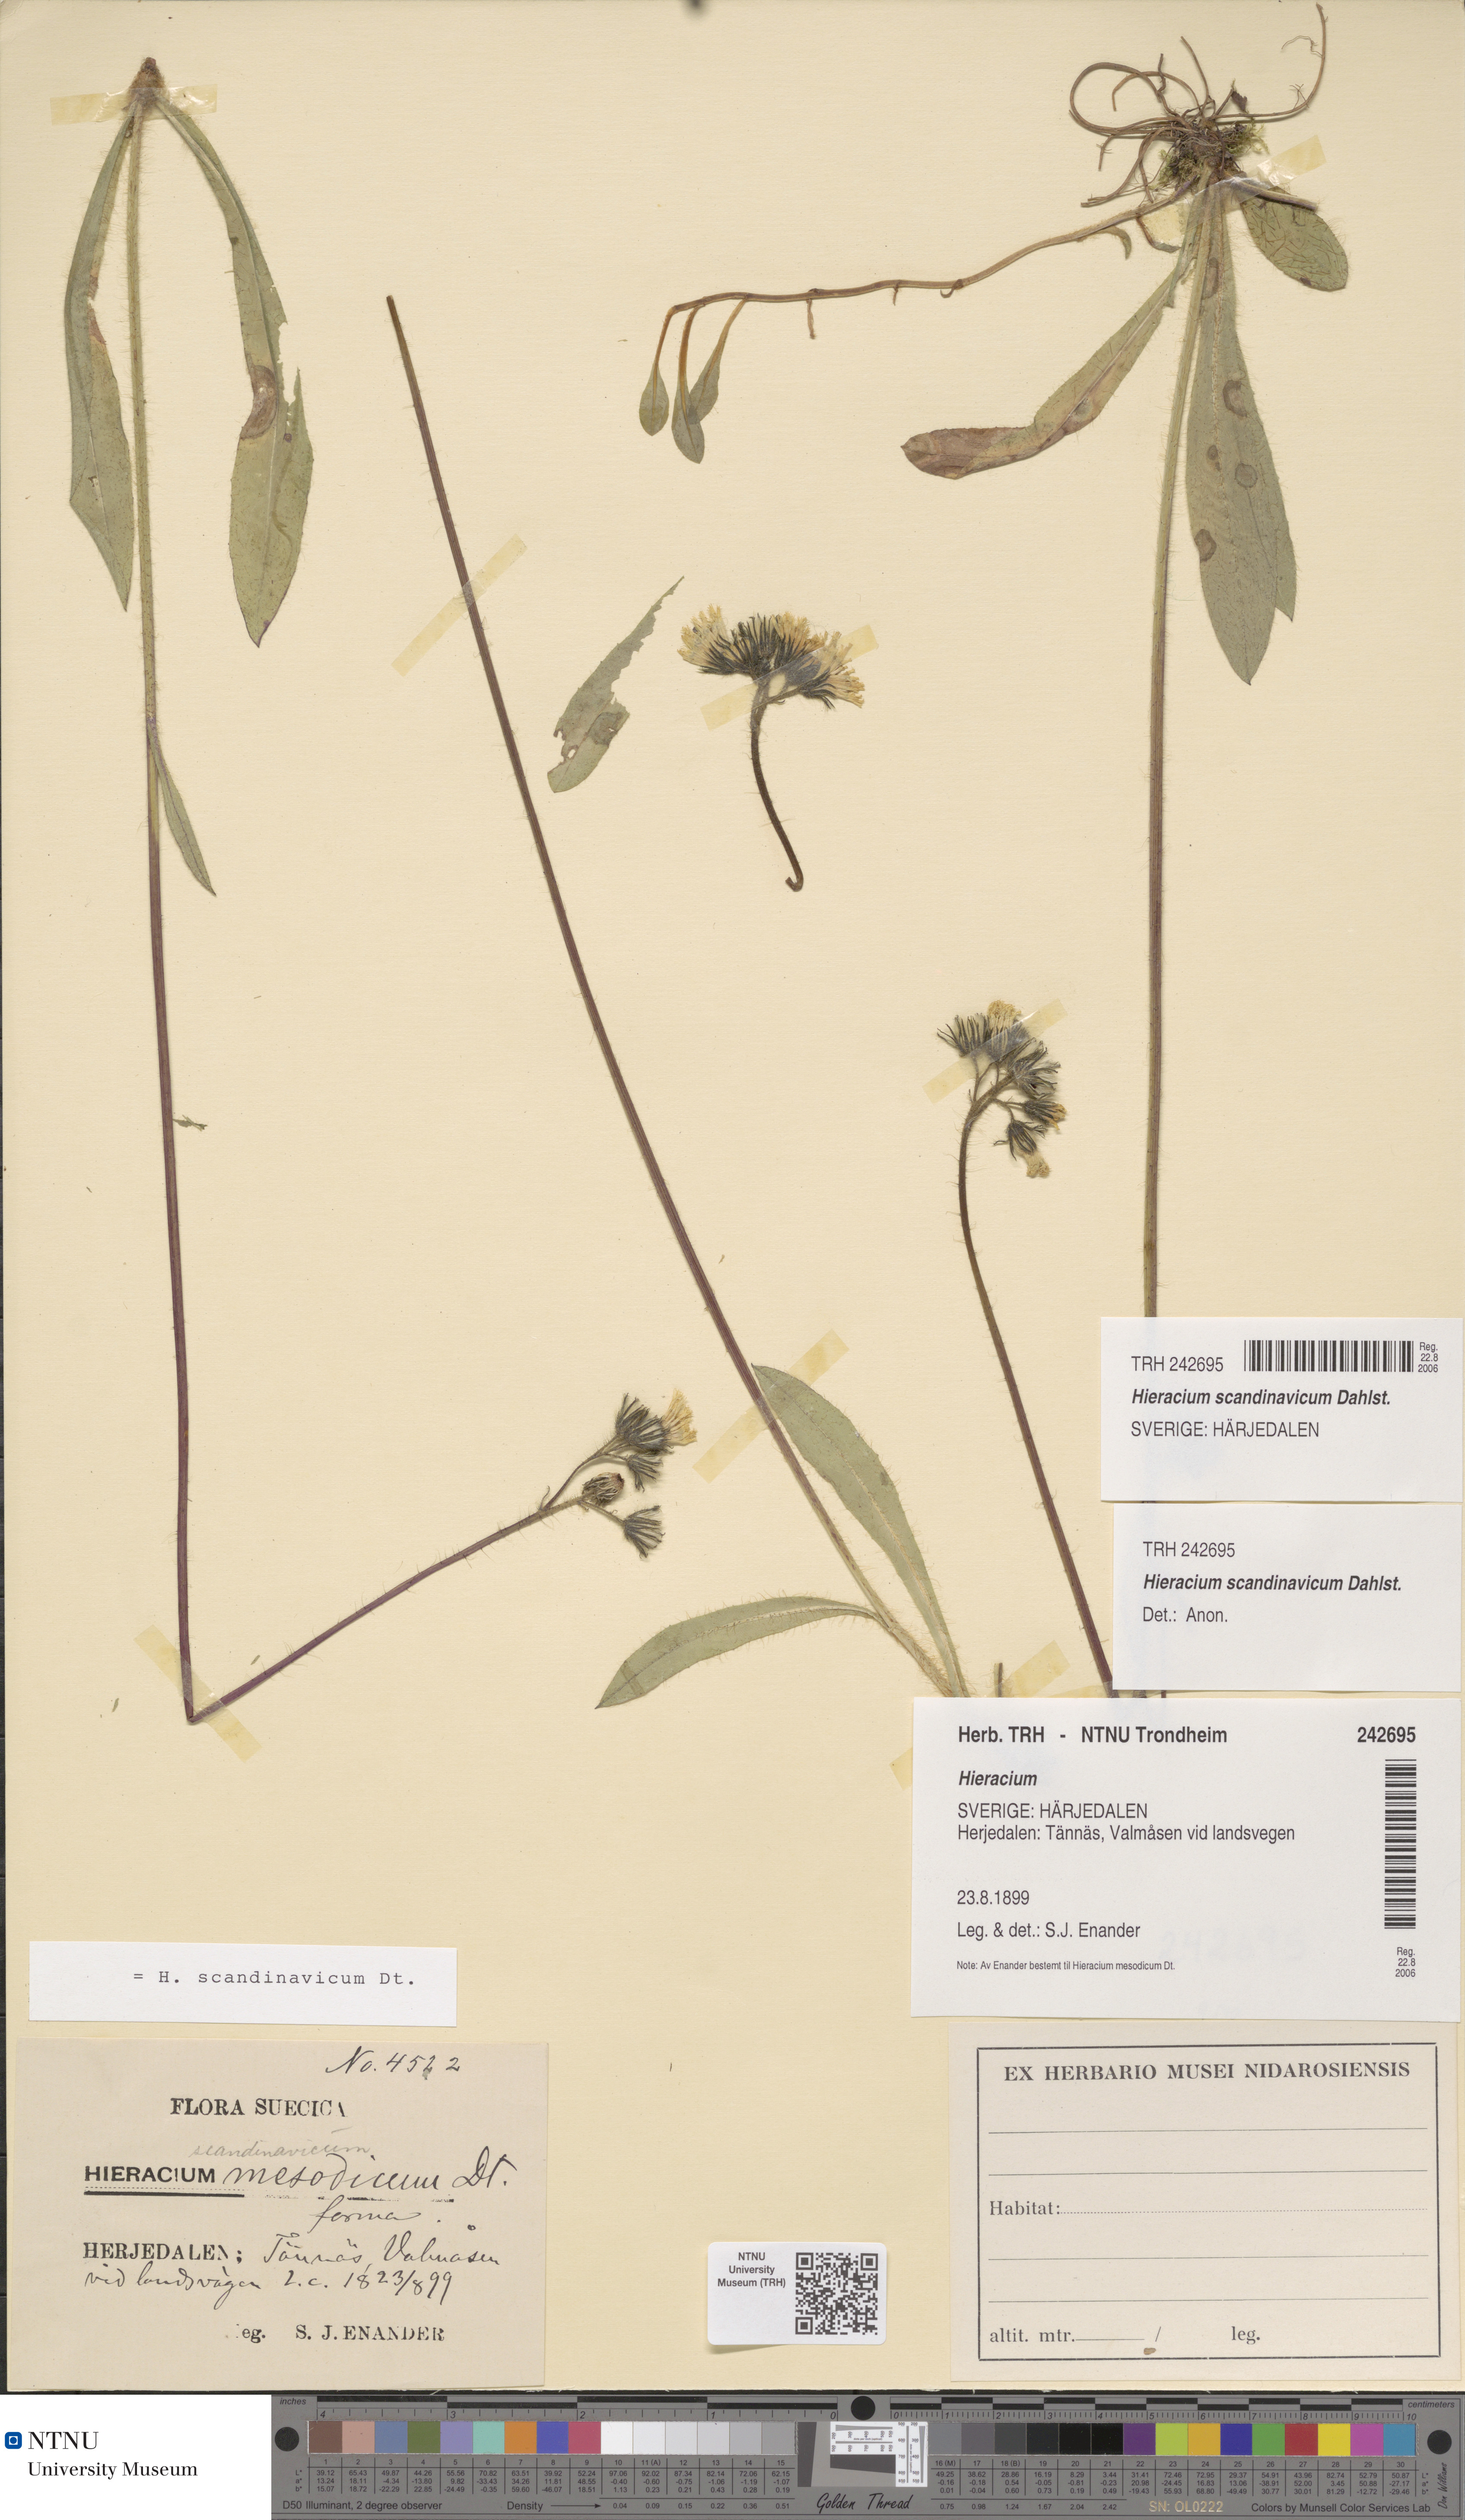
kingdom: Plantae
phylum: Tracheophyta
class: Magnoliopsida
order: Asterales
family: Asteraceae
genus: Pilosella
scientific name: Pilosella scandinavica
